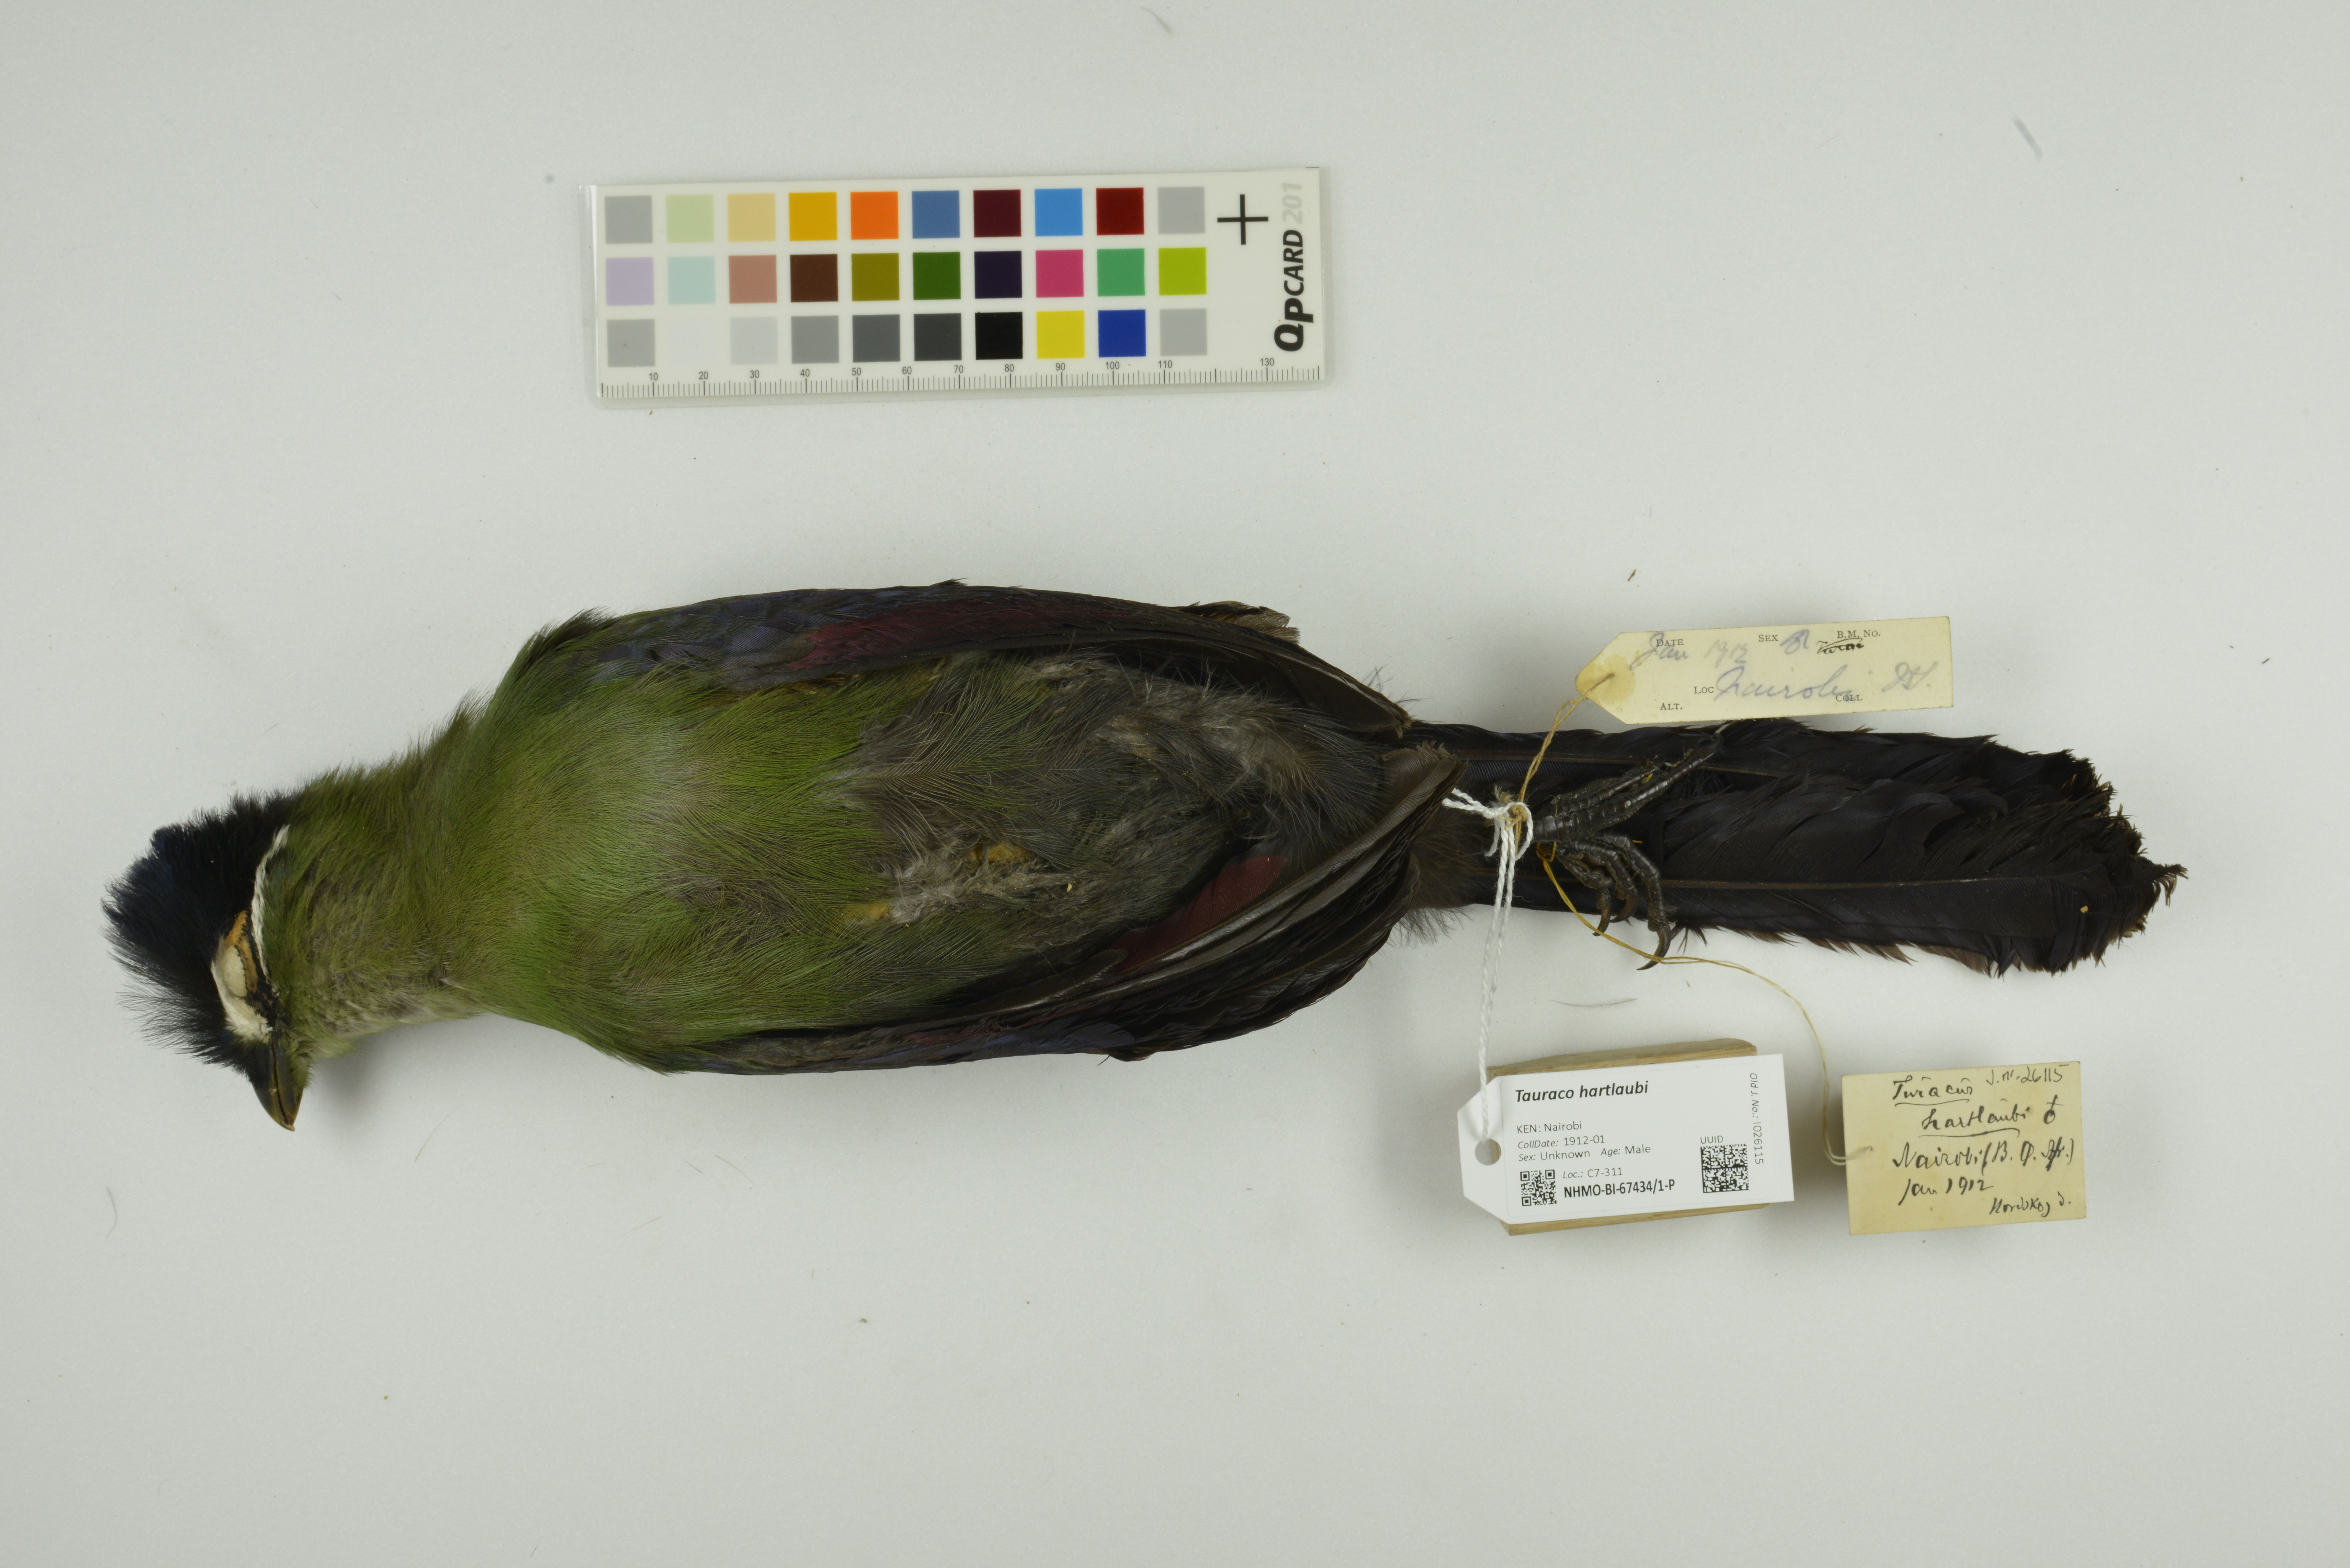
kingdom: Animalia
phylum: Chordata
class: Aves
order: Musophagiformes
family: Musophagidae
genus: Tauraco
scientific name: Tauraco hartlaubi
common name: Hartlaub's turaco
